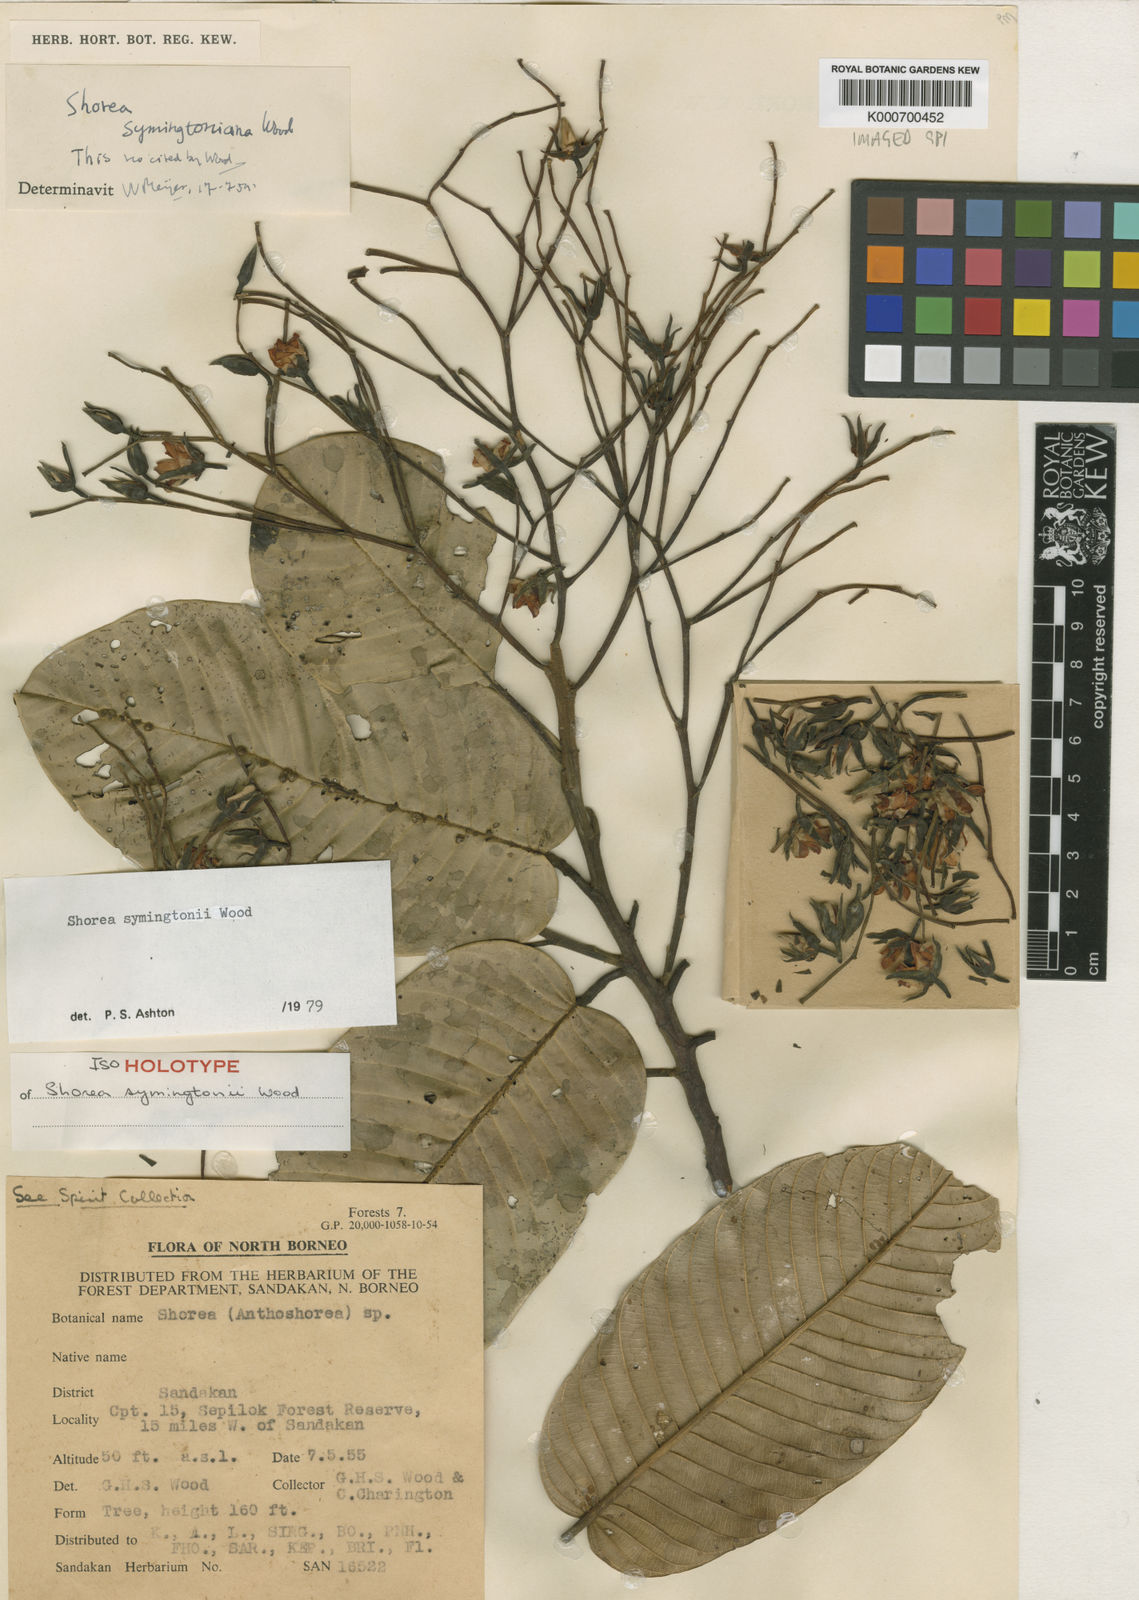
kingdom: Plantae
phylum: Tracheophyta
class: Magnoliopsida
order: Malvales
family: Dipterocarpaceae
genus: Anthoshorea
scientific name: Anthoshorea symingtonii
